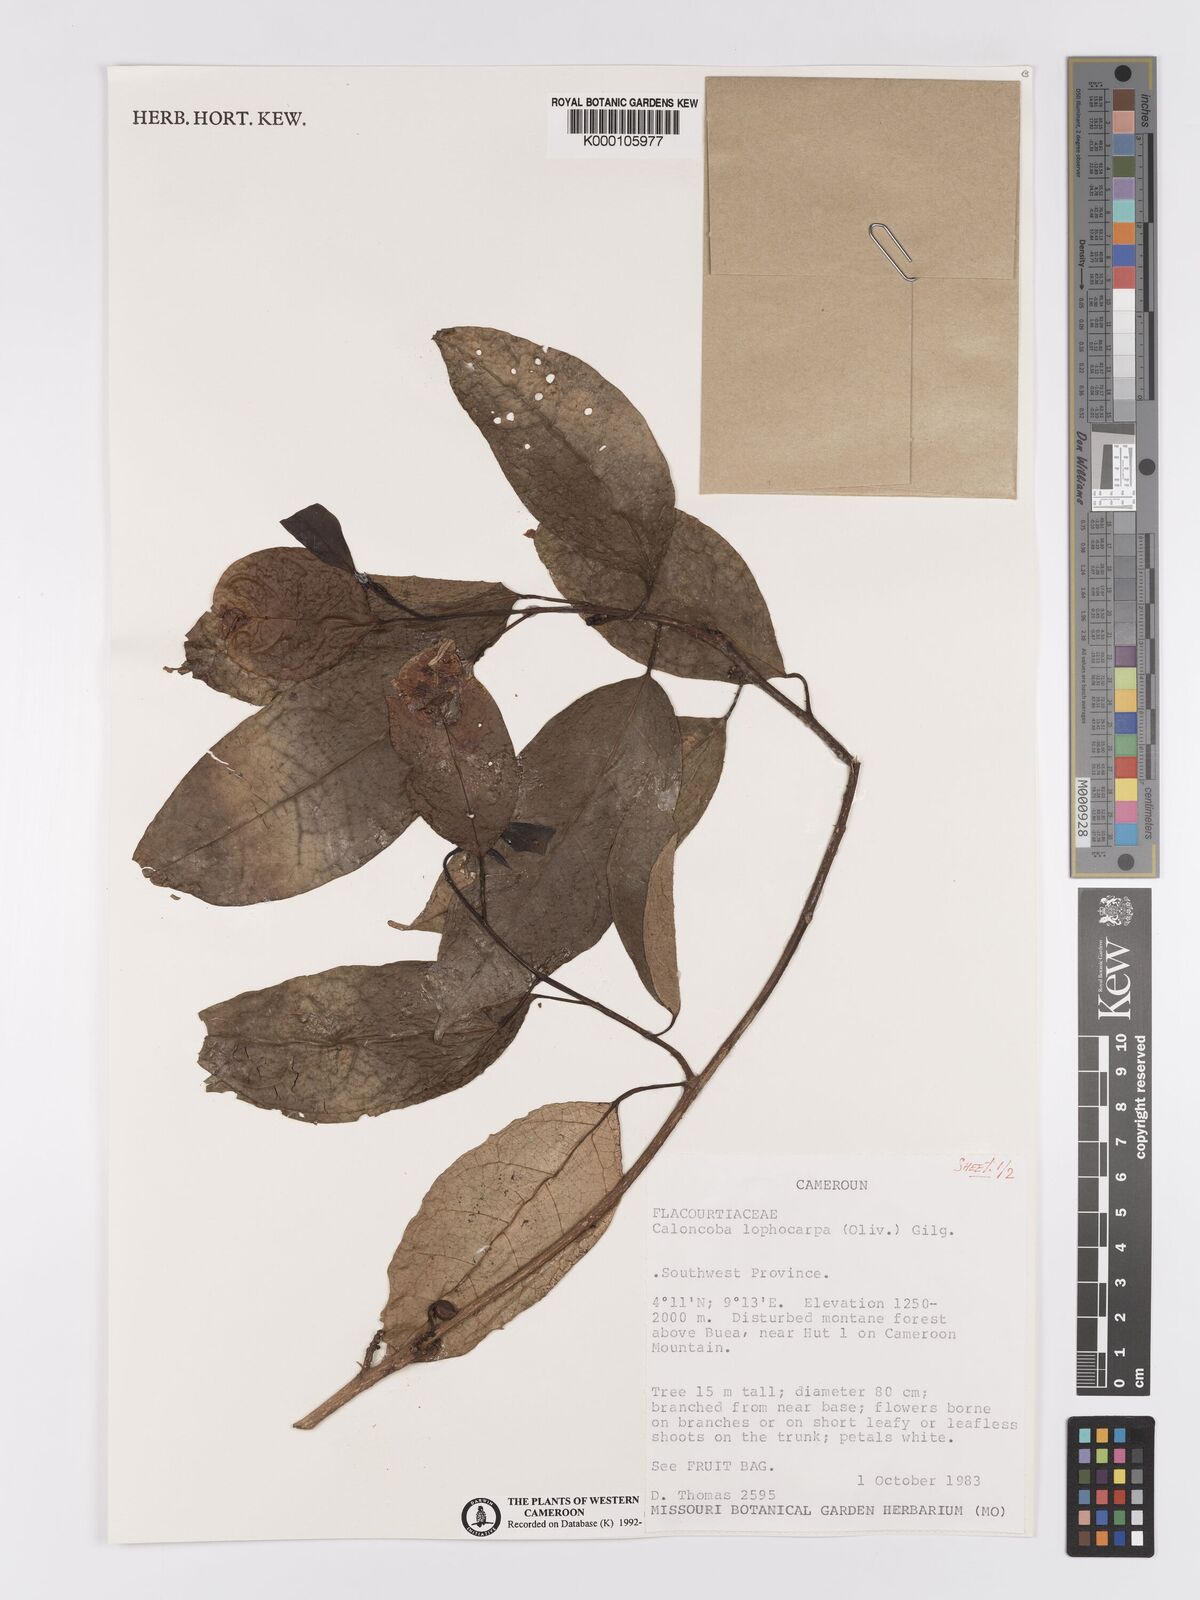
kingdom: Plantae
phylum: Tracheophyta
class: Magnoliopsida
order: Malpighiales
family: Achariaceae
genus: Caloncoba
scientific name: Caloncoba lophocarpa
